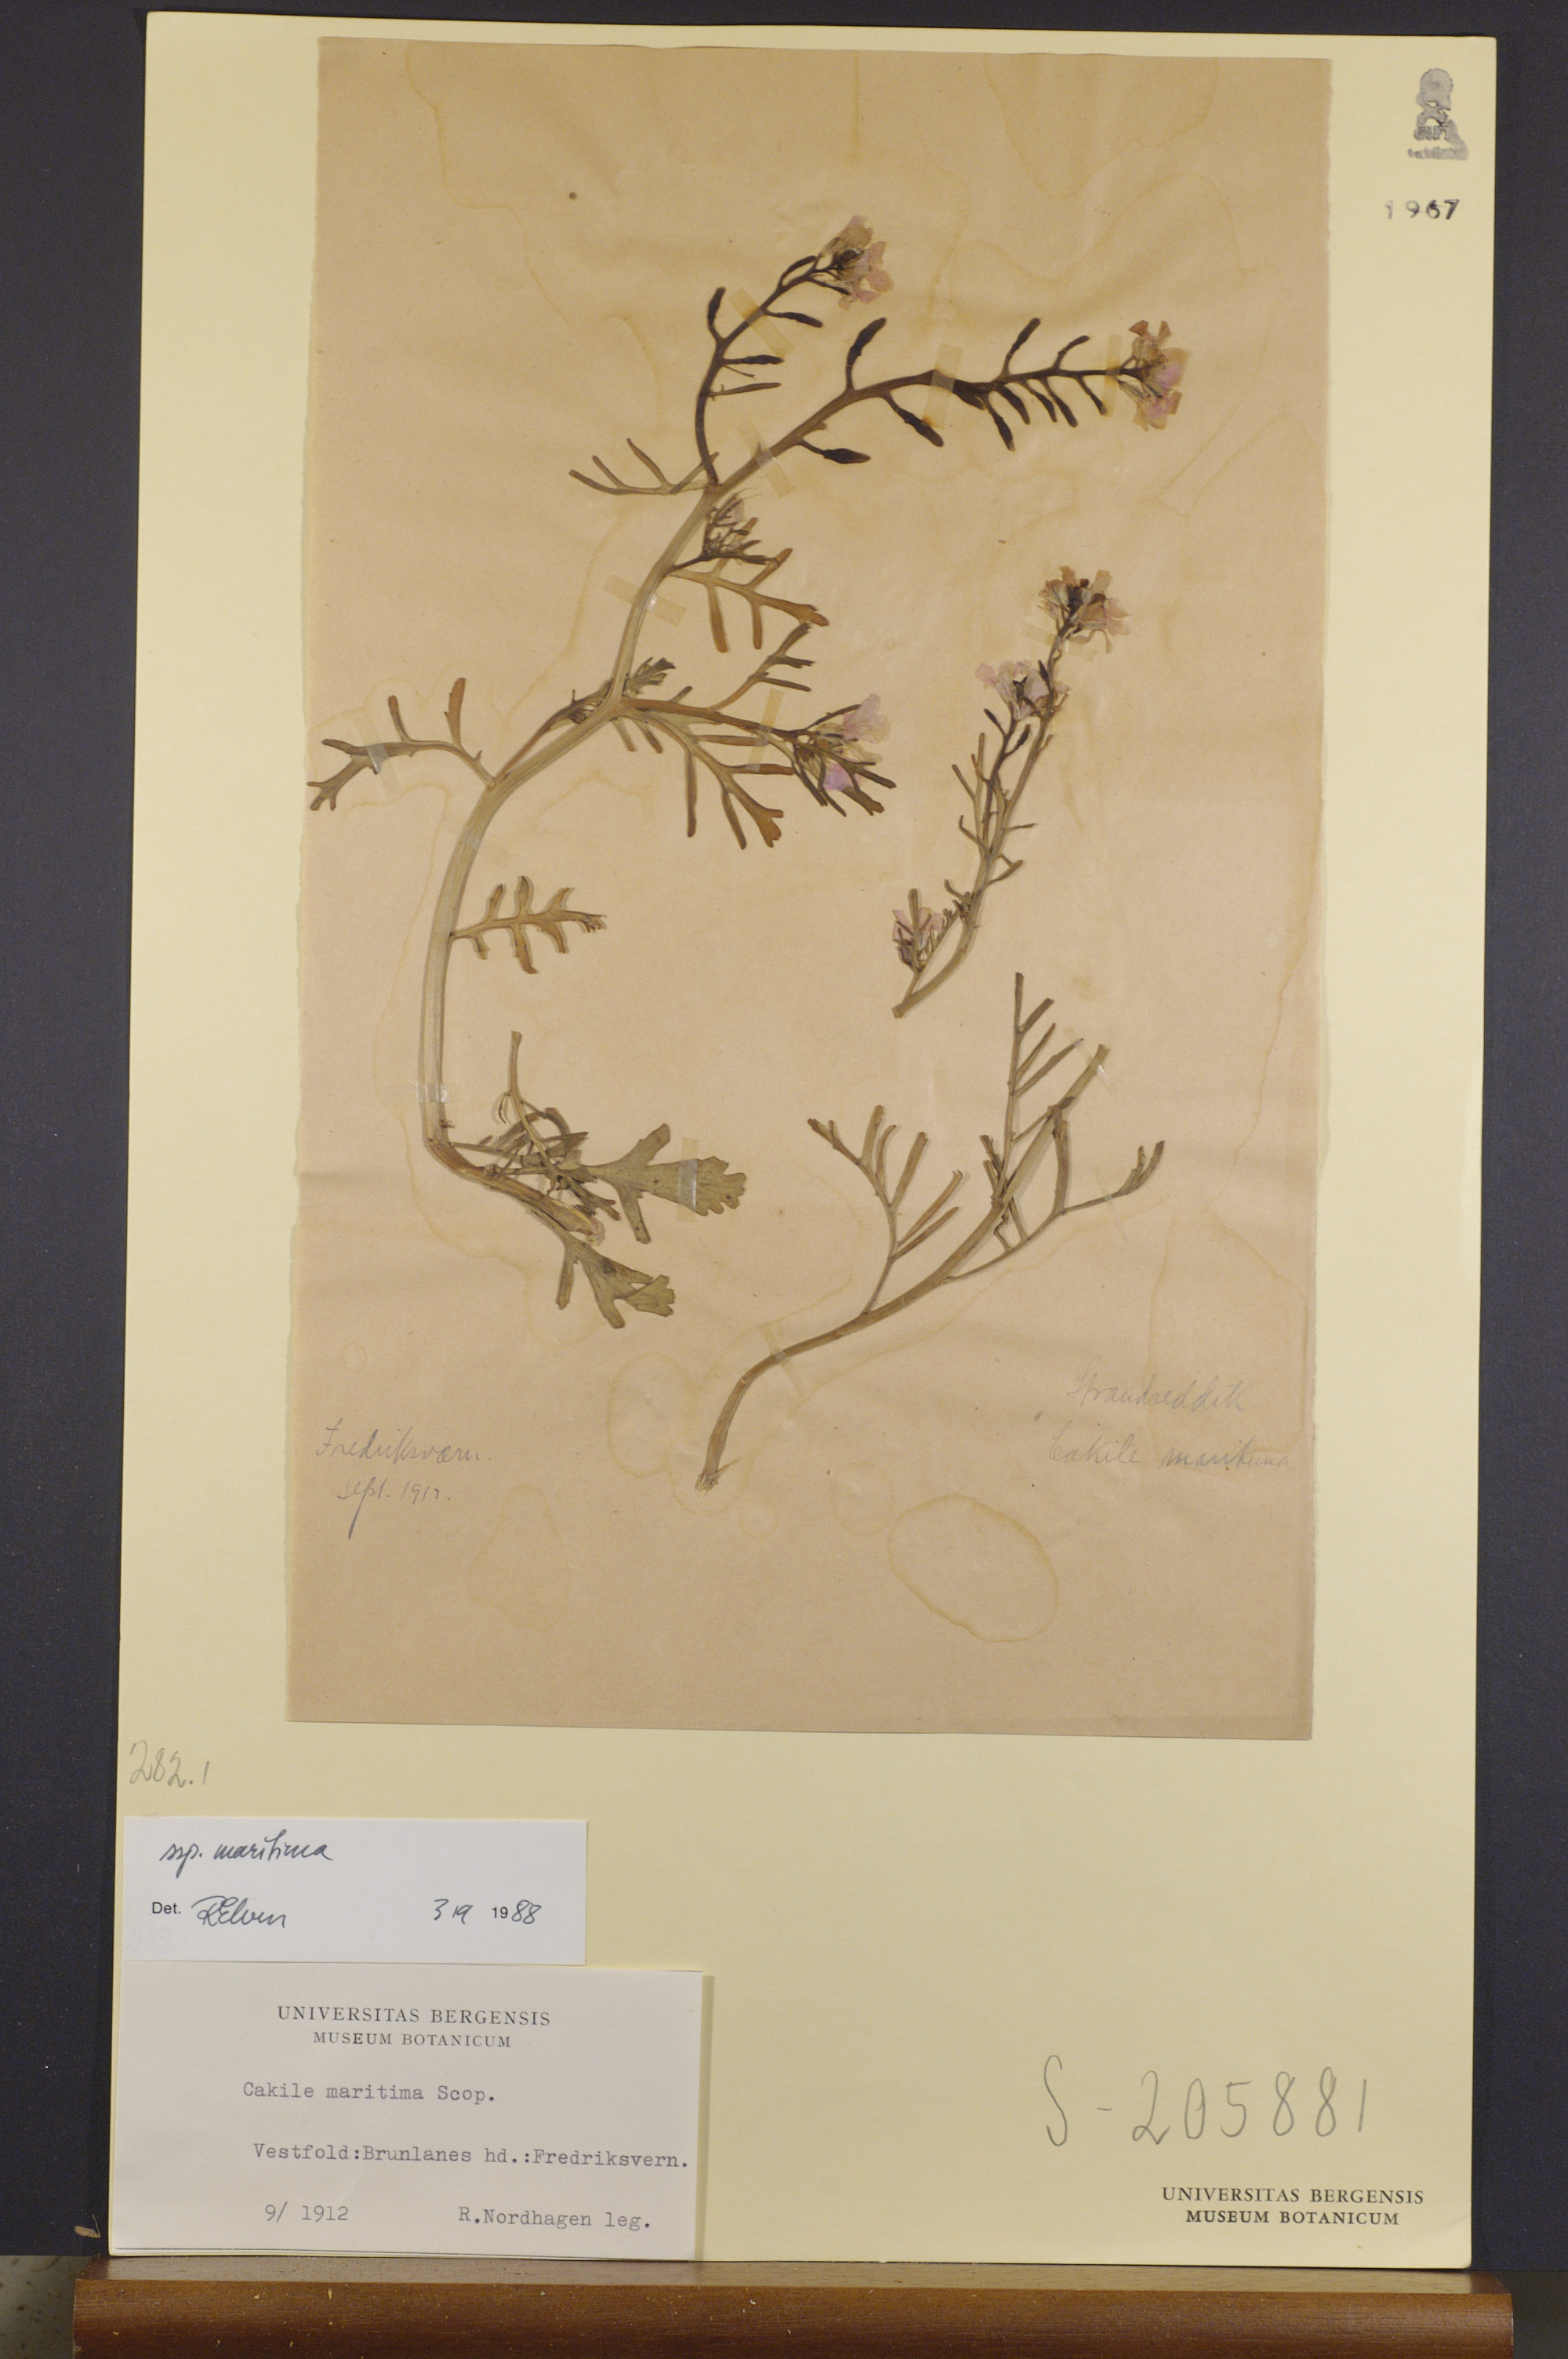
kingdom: Plantae
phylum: Tracheophyta
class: Magnoliopsida
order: Brassicales
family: Brassicaceae
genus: Cakile
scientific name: Cakile maritima
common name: Sea rocket
